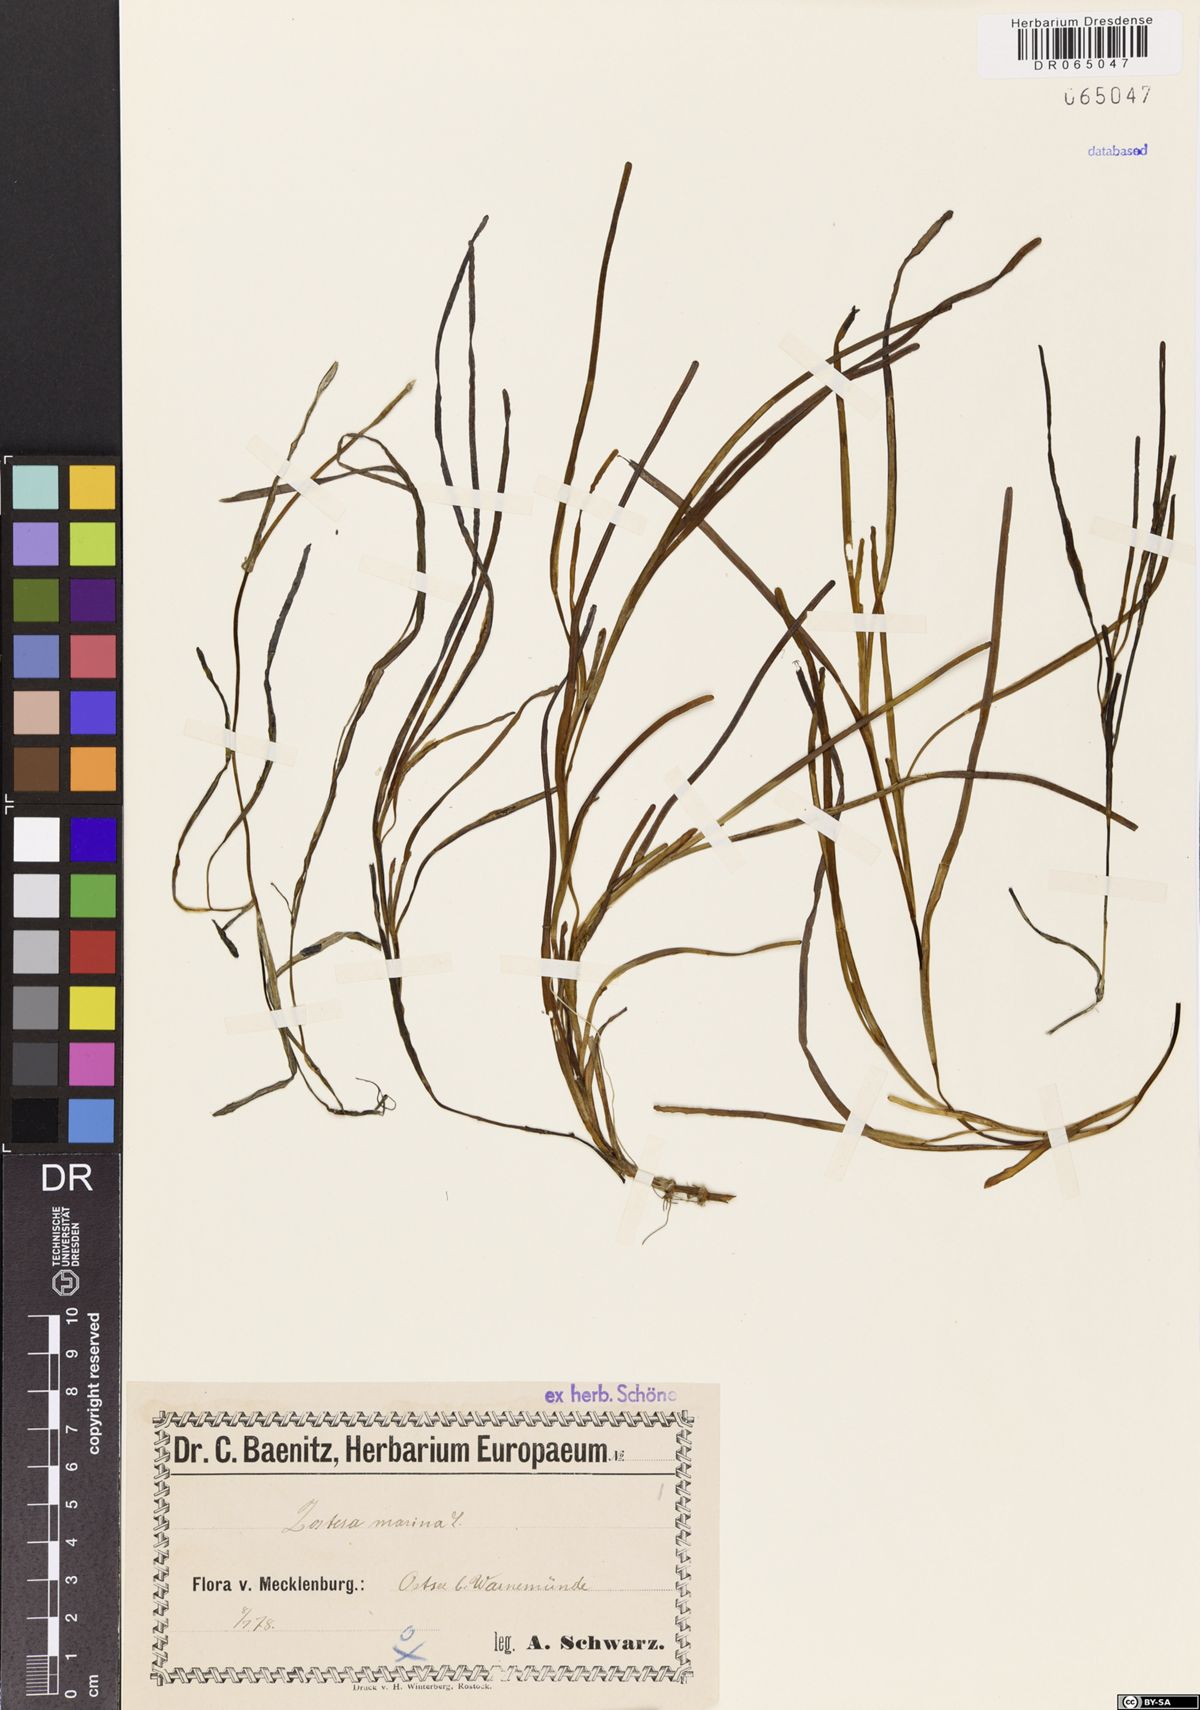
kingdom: Plantae
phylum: Tracheophyta
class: Liliopsida
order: Alismatales
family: Zosteraceae
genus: Zostera
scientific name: Zostera marina
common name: Eelgrass
